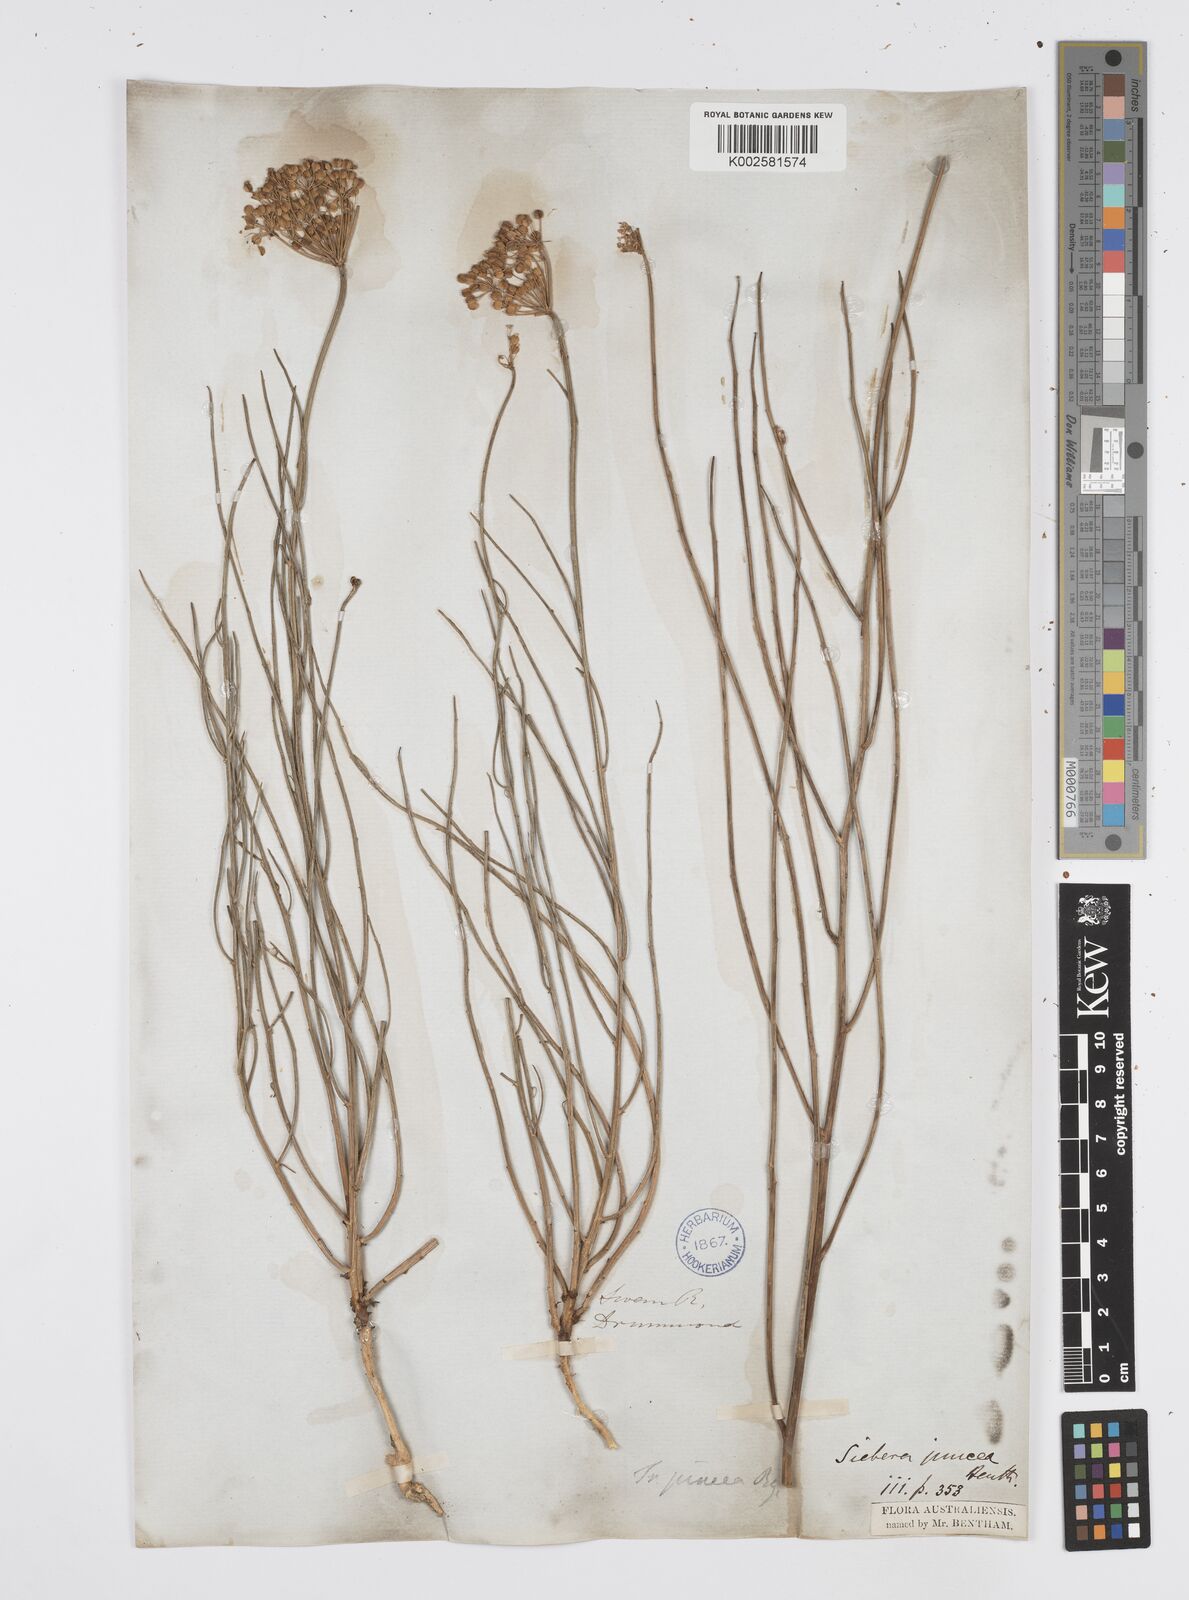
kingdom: Plantae
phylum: Tracheophyta
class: Magnoliopsida
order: Apiales
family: Apiaceae
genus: Platysace
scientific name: Platysace juncea
